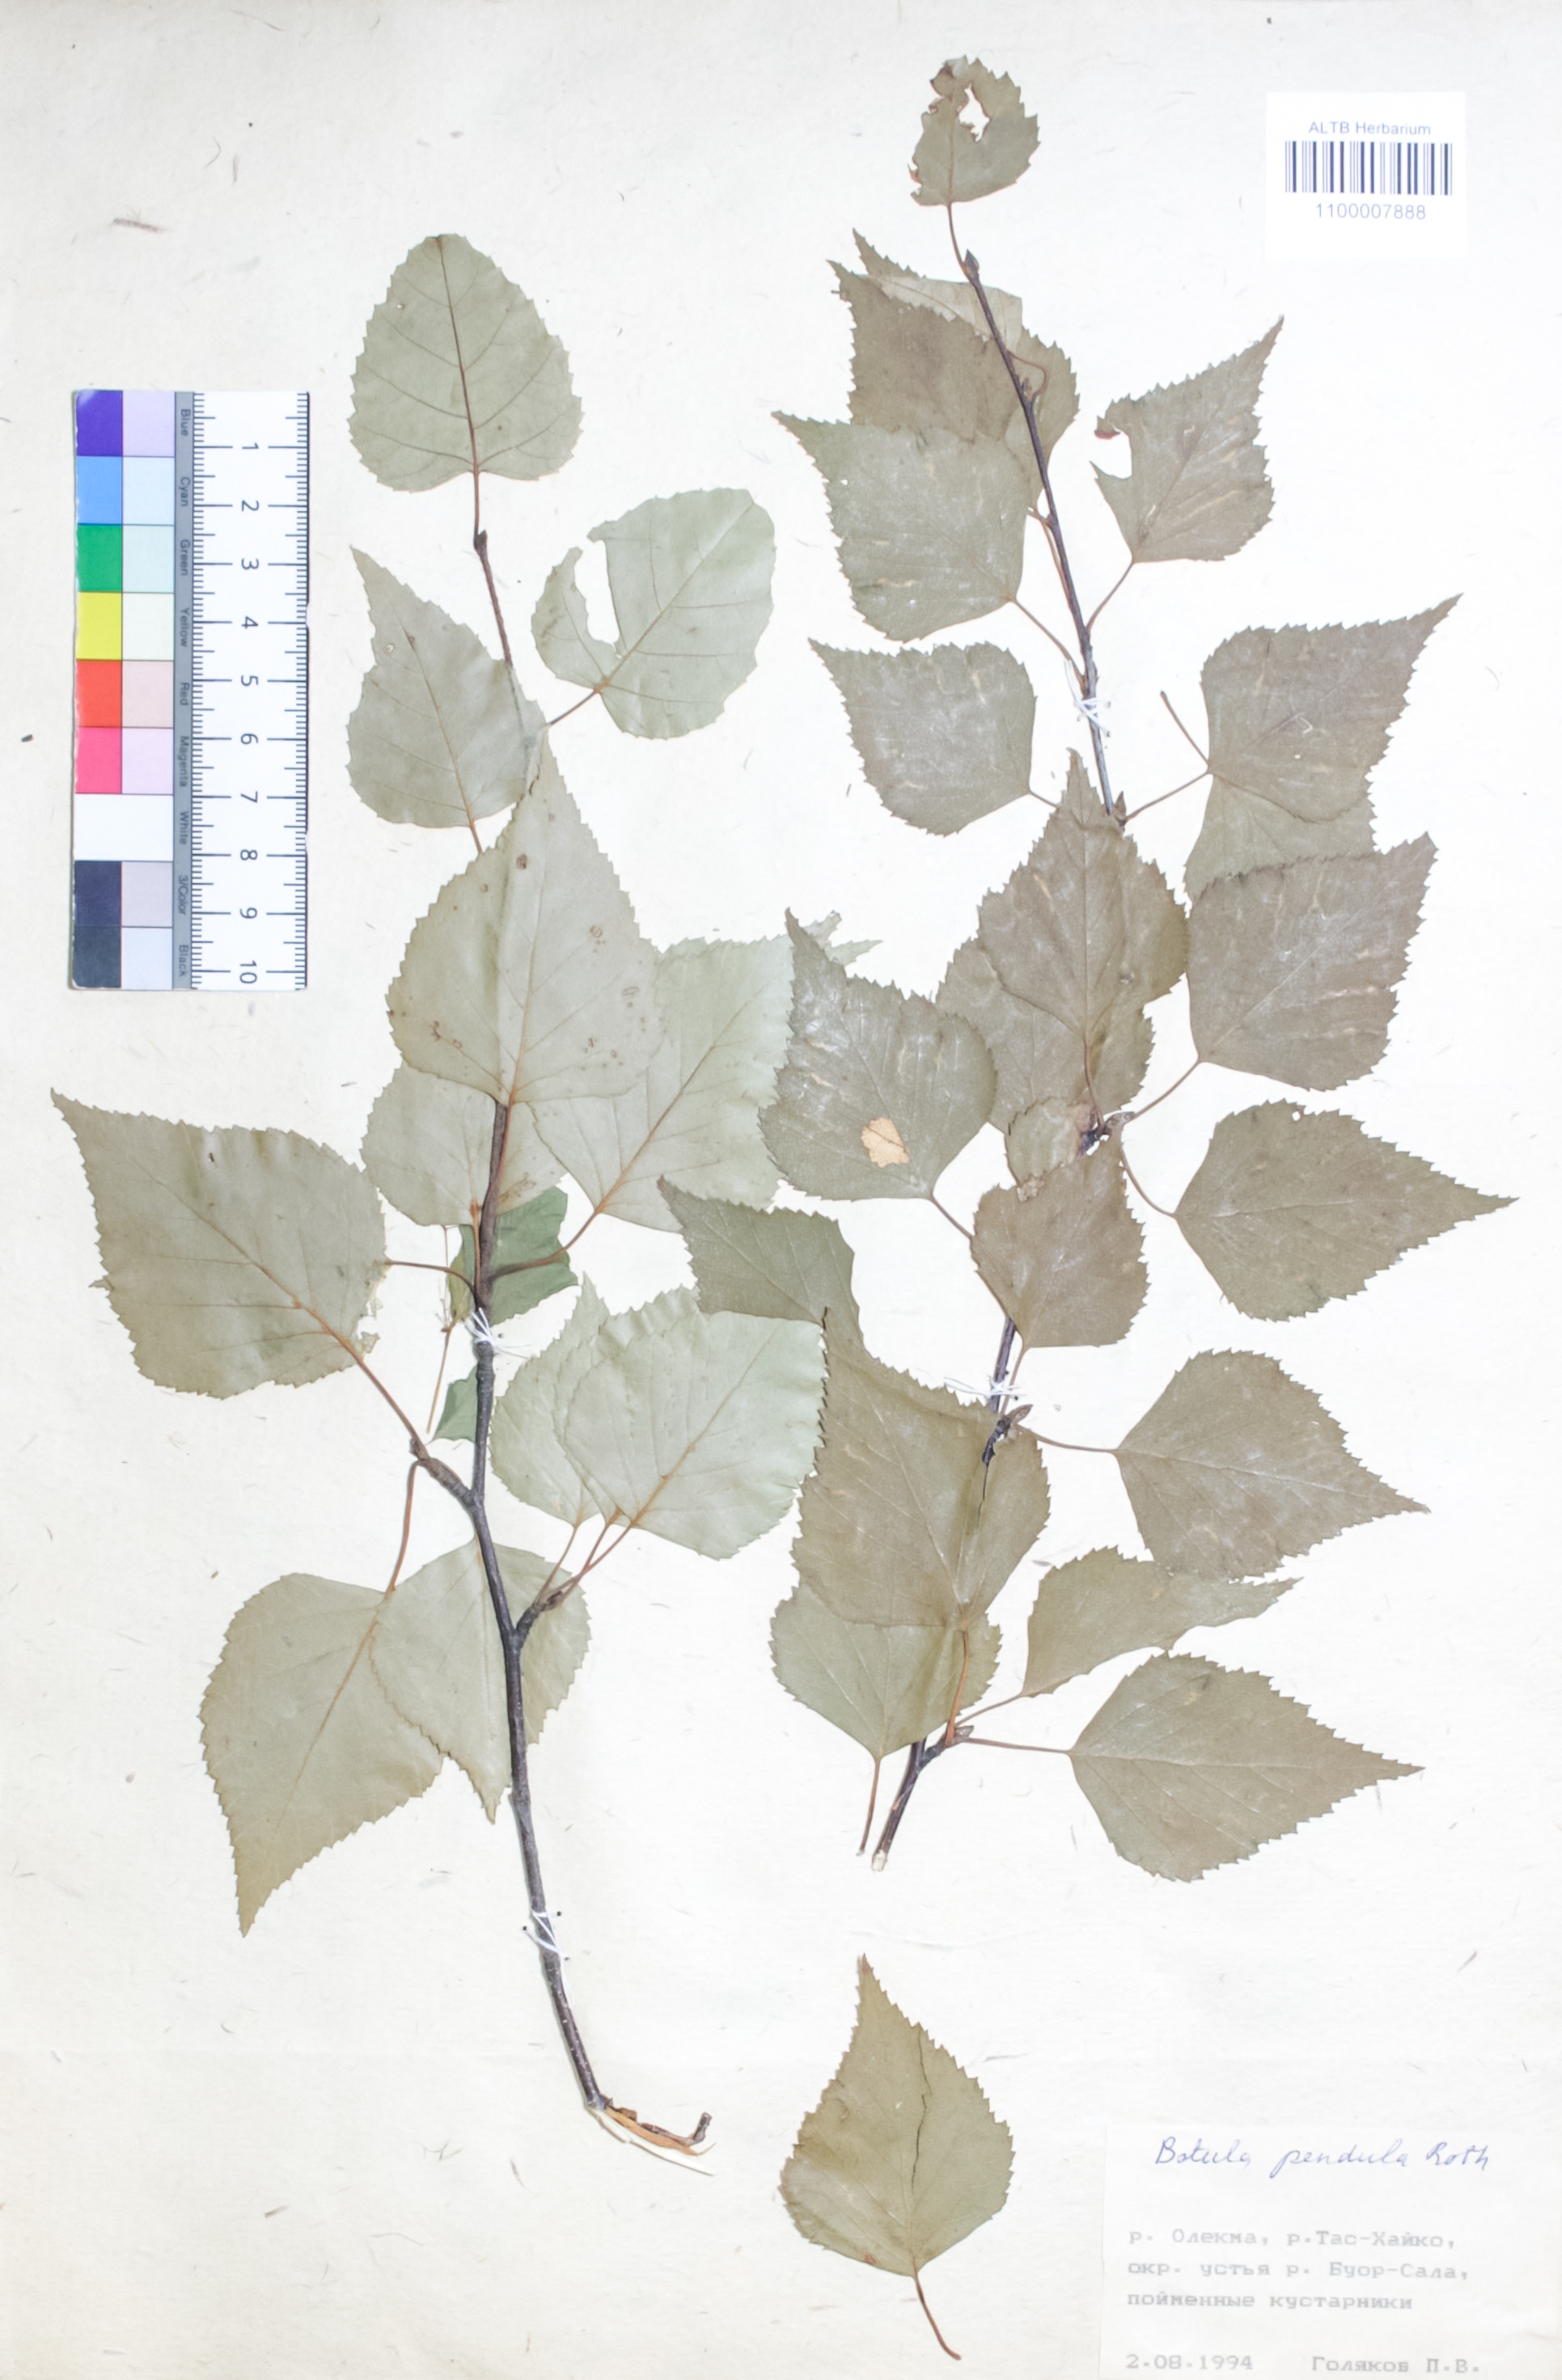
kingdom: Plantae
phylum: Tracheophyta
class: Magnoliopsida
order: Fagales
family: Betulaceae
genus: Betula
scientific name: Betula pendula
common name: Silver birch
